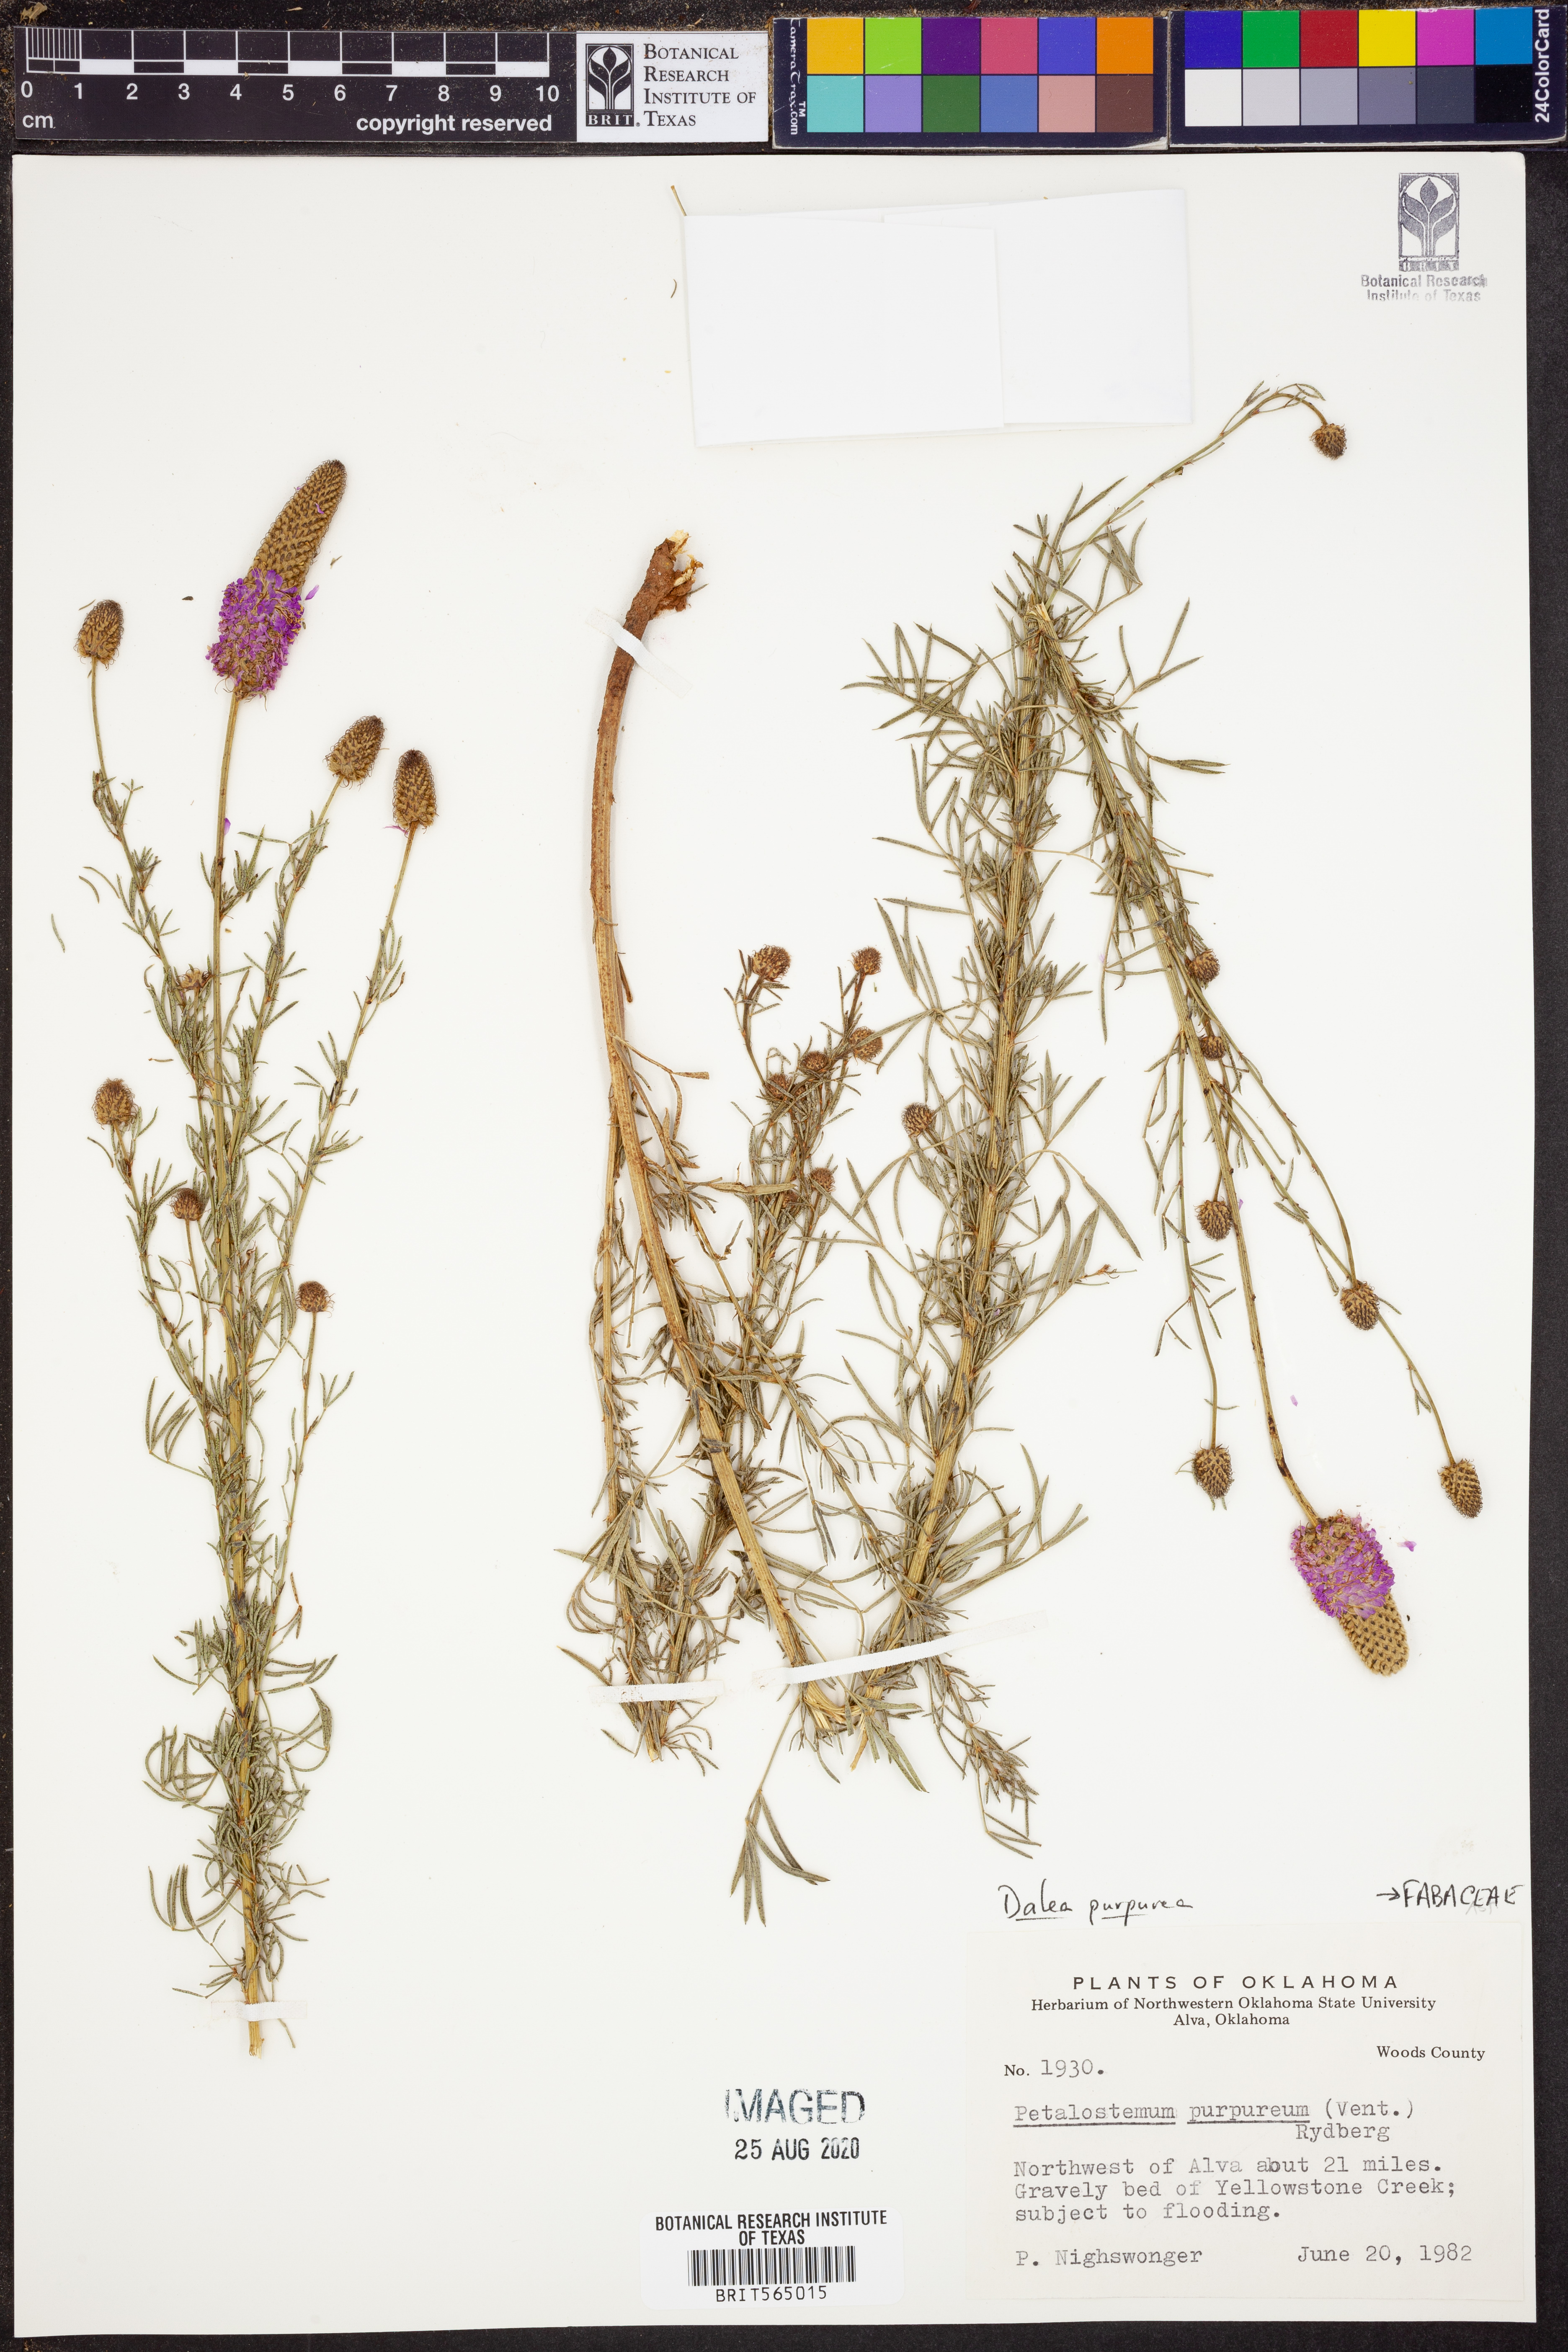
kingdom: Plantae
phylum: Tracheophyta
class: Magnoliopsida
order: Fabales
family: Fabaceae
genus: Dalea
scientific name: Dalea purpurea
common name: Purple prairie-clover
